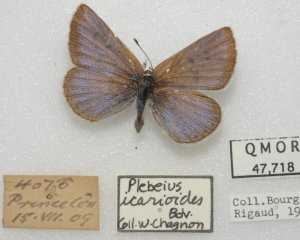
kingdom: Animalia
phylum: Arthropoda
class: Insecta
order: Lepidoptera
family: Lycaenidae
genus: Icaricia
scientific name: Icaricia icarioides
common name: Boisduval's Blue
